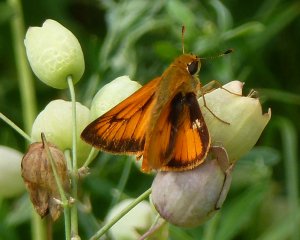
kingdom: Animalia
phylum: Arthropoda
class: Insecta
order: Lepidoptera
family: Hesperiidae
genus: Lon
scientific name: Lon hobomok
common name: Hobomok Skipper
